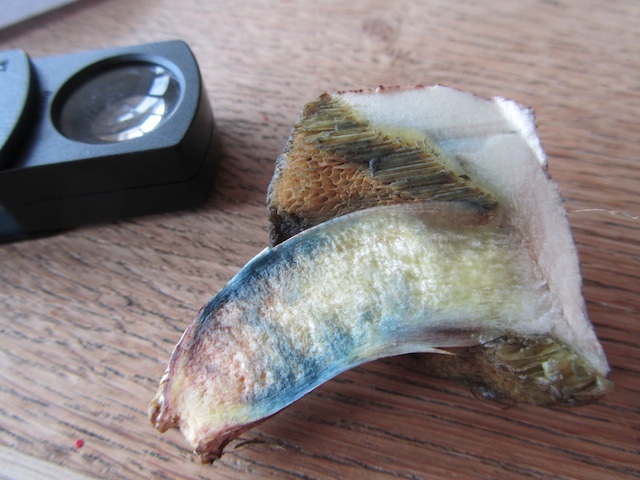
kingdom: Fungi
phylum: Basidiomycota
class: Agaricomycetes
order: Boletales
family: Boletaceae
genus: Xerocomellus
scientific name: Xerocomellus cisalpinus
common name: finsprukken rørhat
